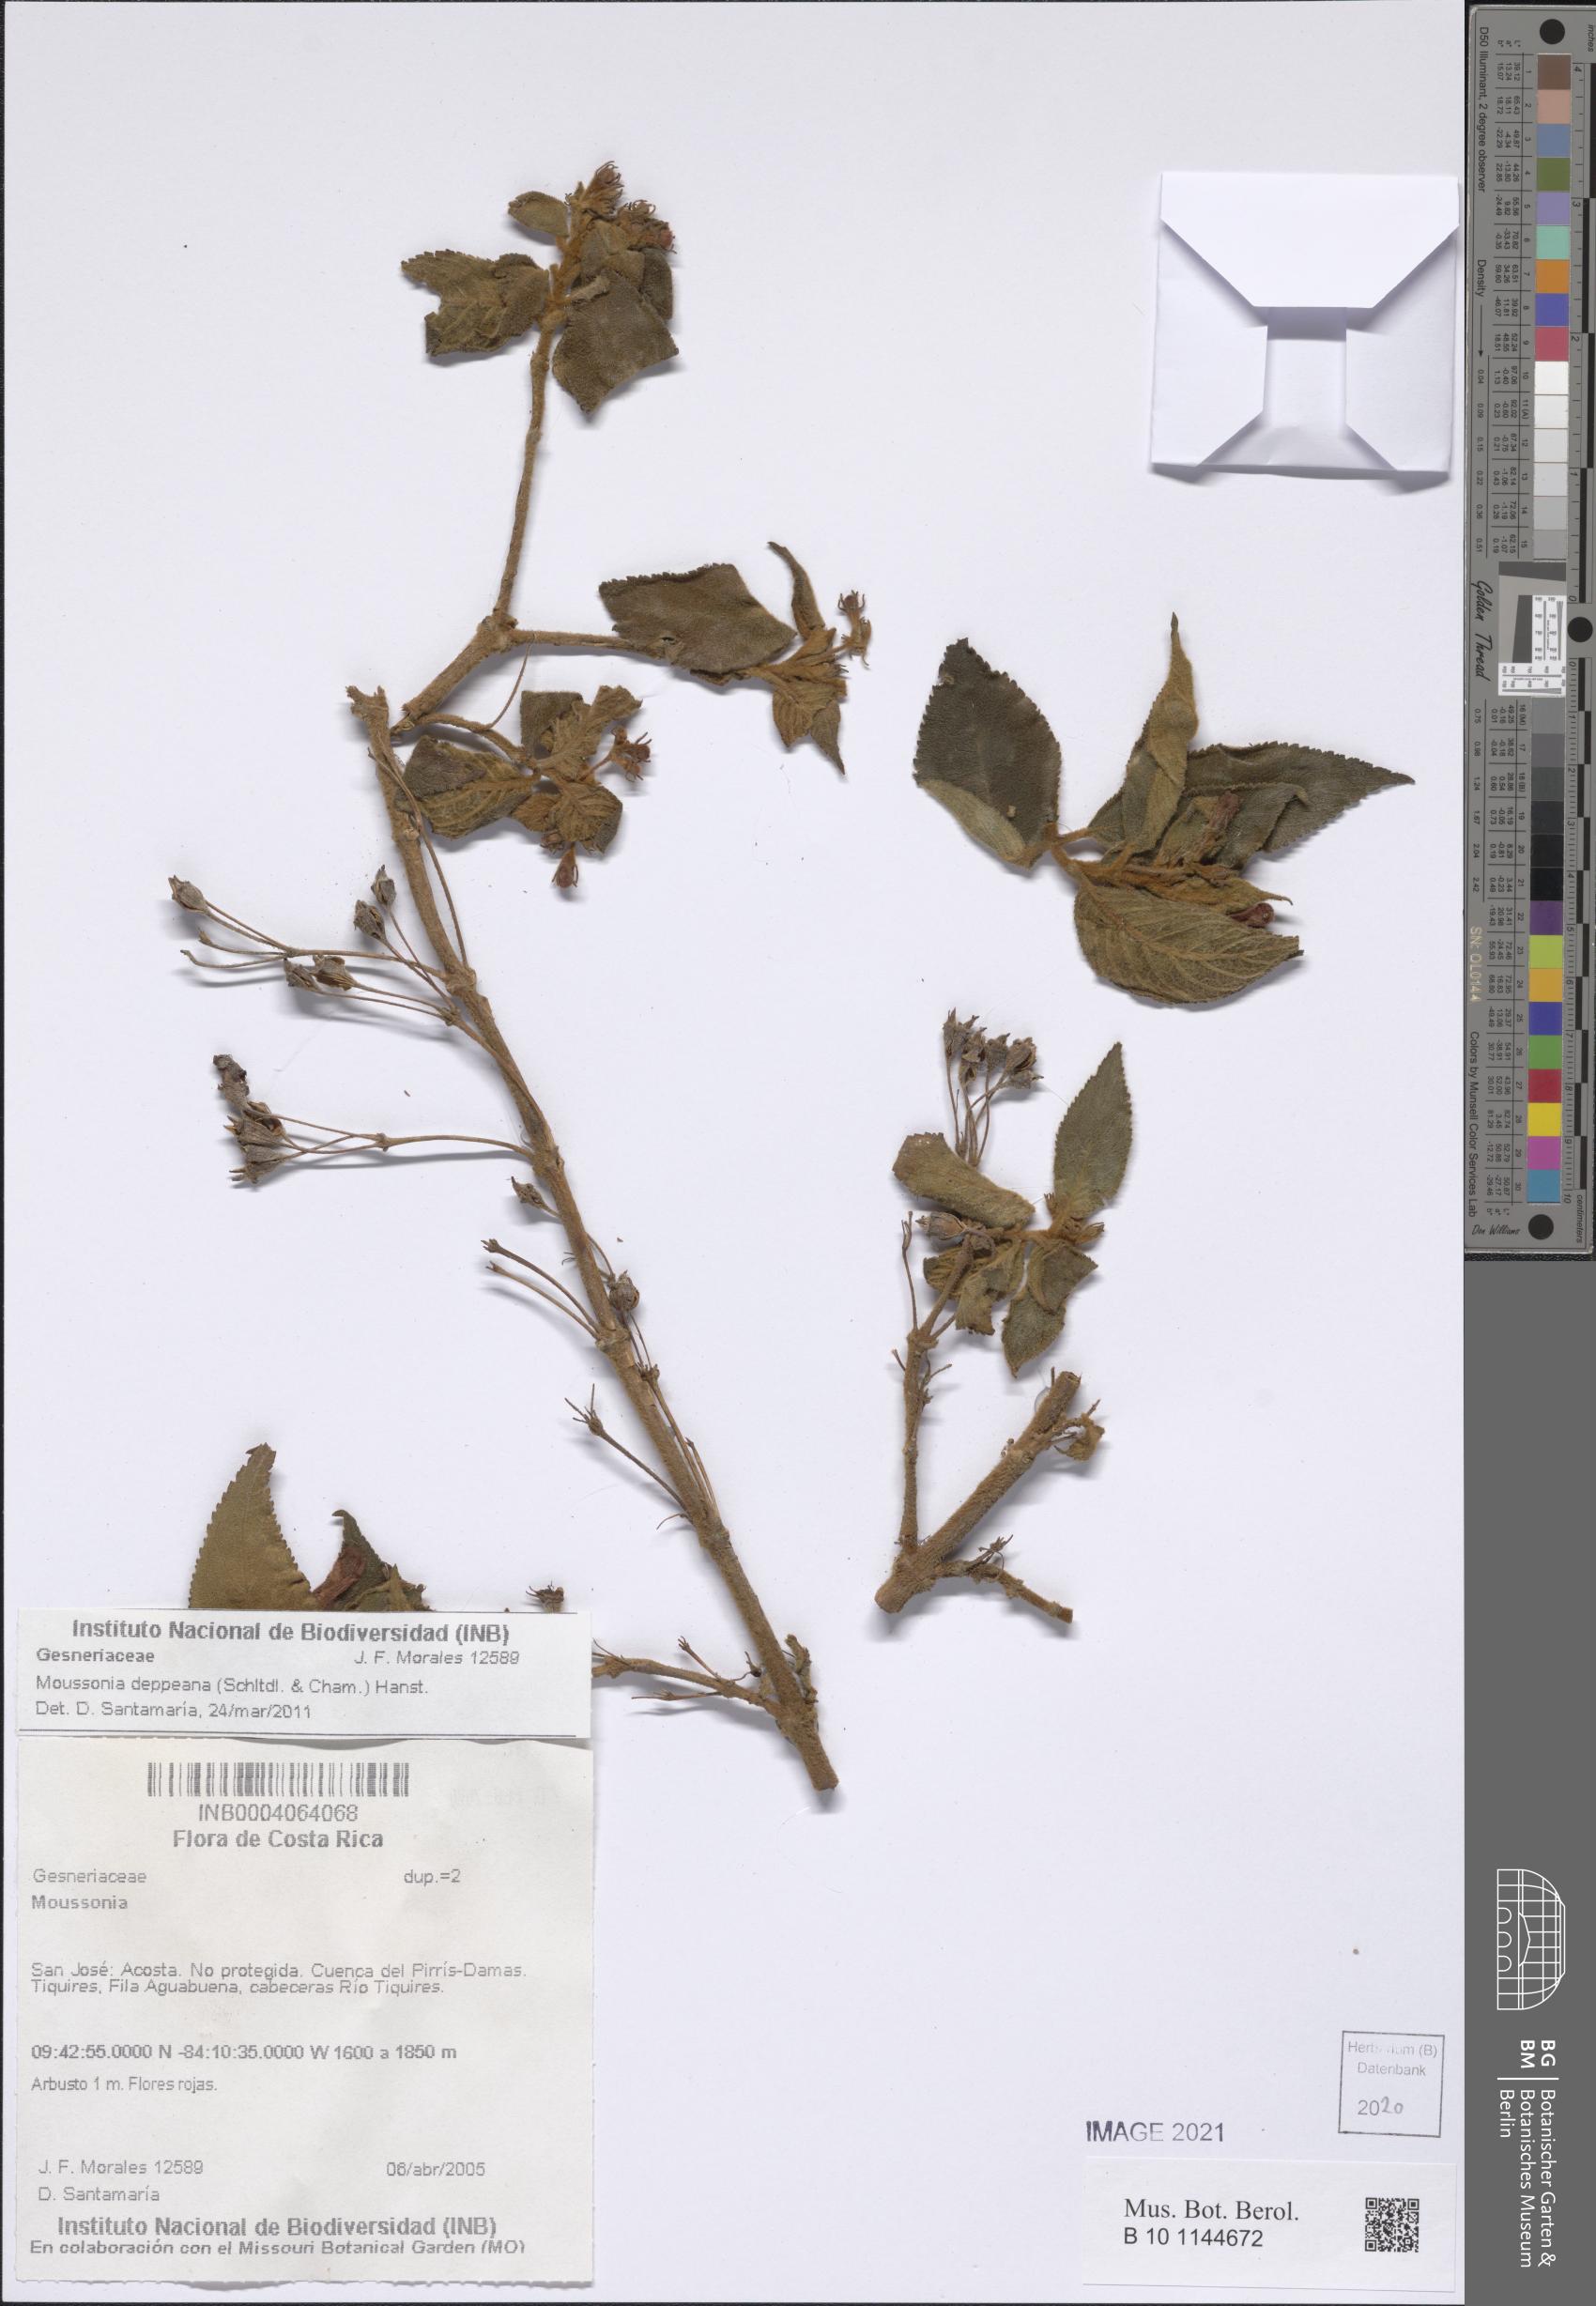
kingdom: Plantae
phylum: Tracheophyta
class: Magnoliopsida
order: Lamiales
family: Gesneriaceae
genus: Moussonia
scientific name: Moussonia deppeana
